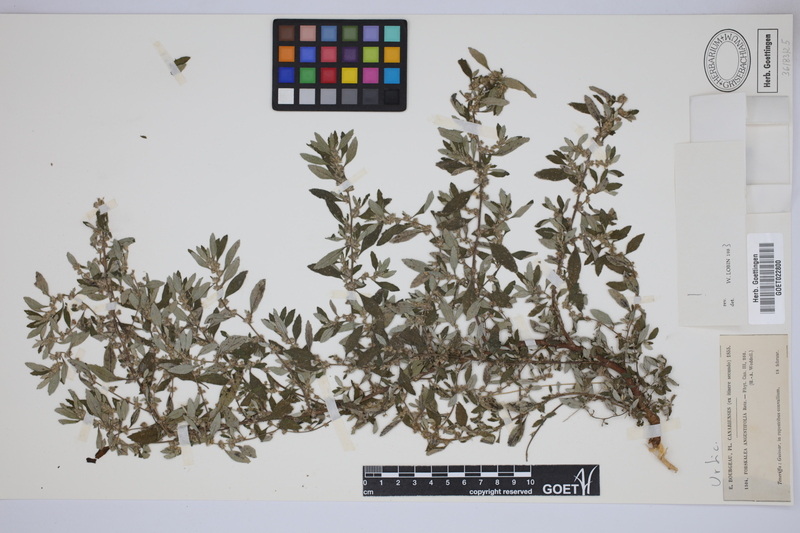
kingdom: Plantae
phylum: Tracheophyta
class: Magnoliopsida
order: Rosales
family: Urticaceae
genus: Forsskaolea
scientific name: Forsskaolea angustifolia
